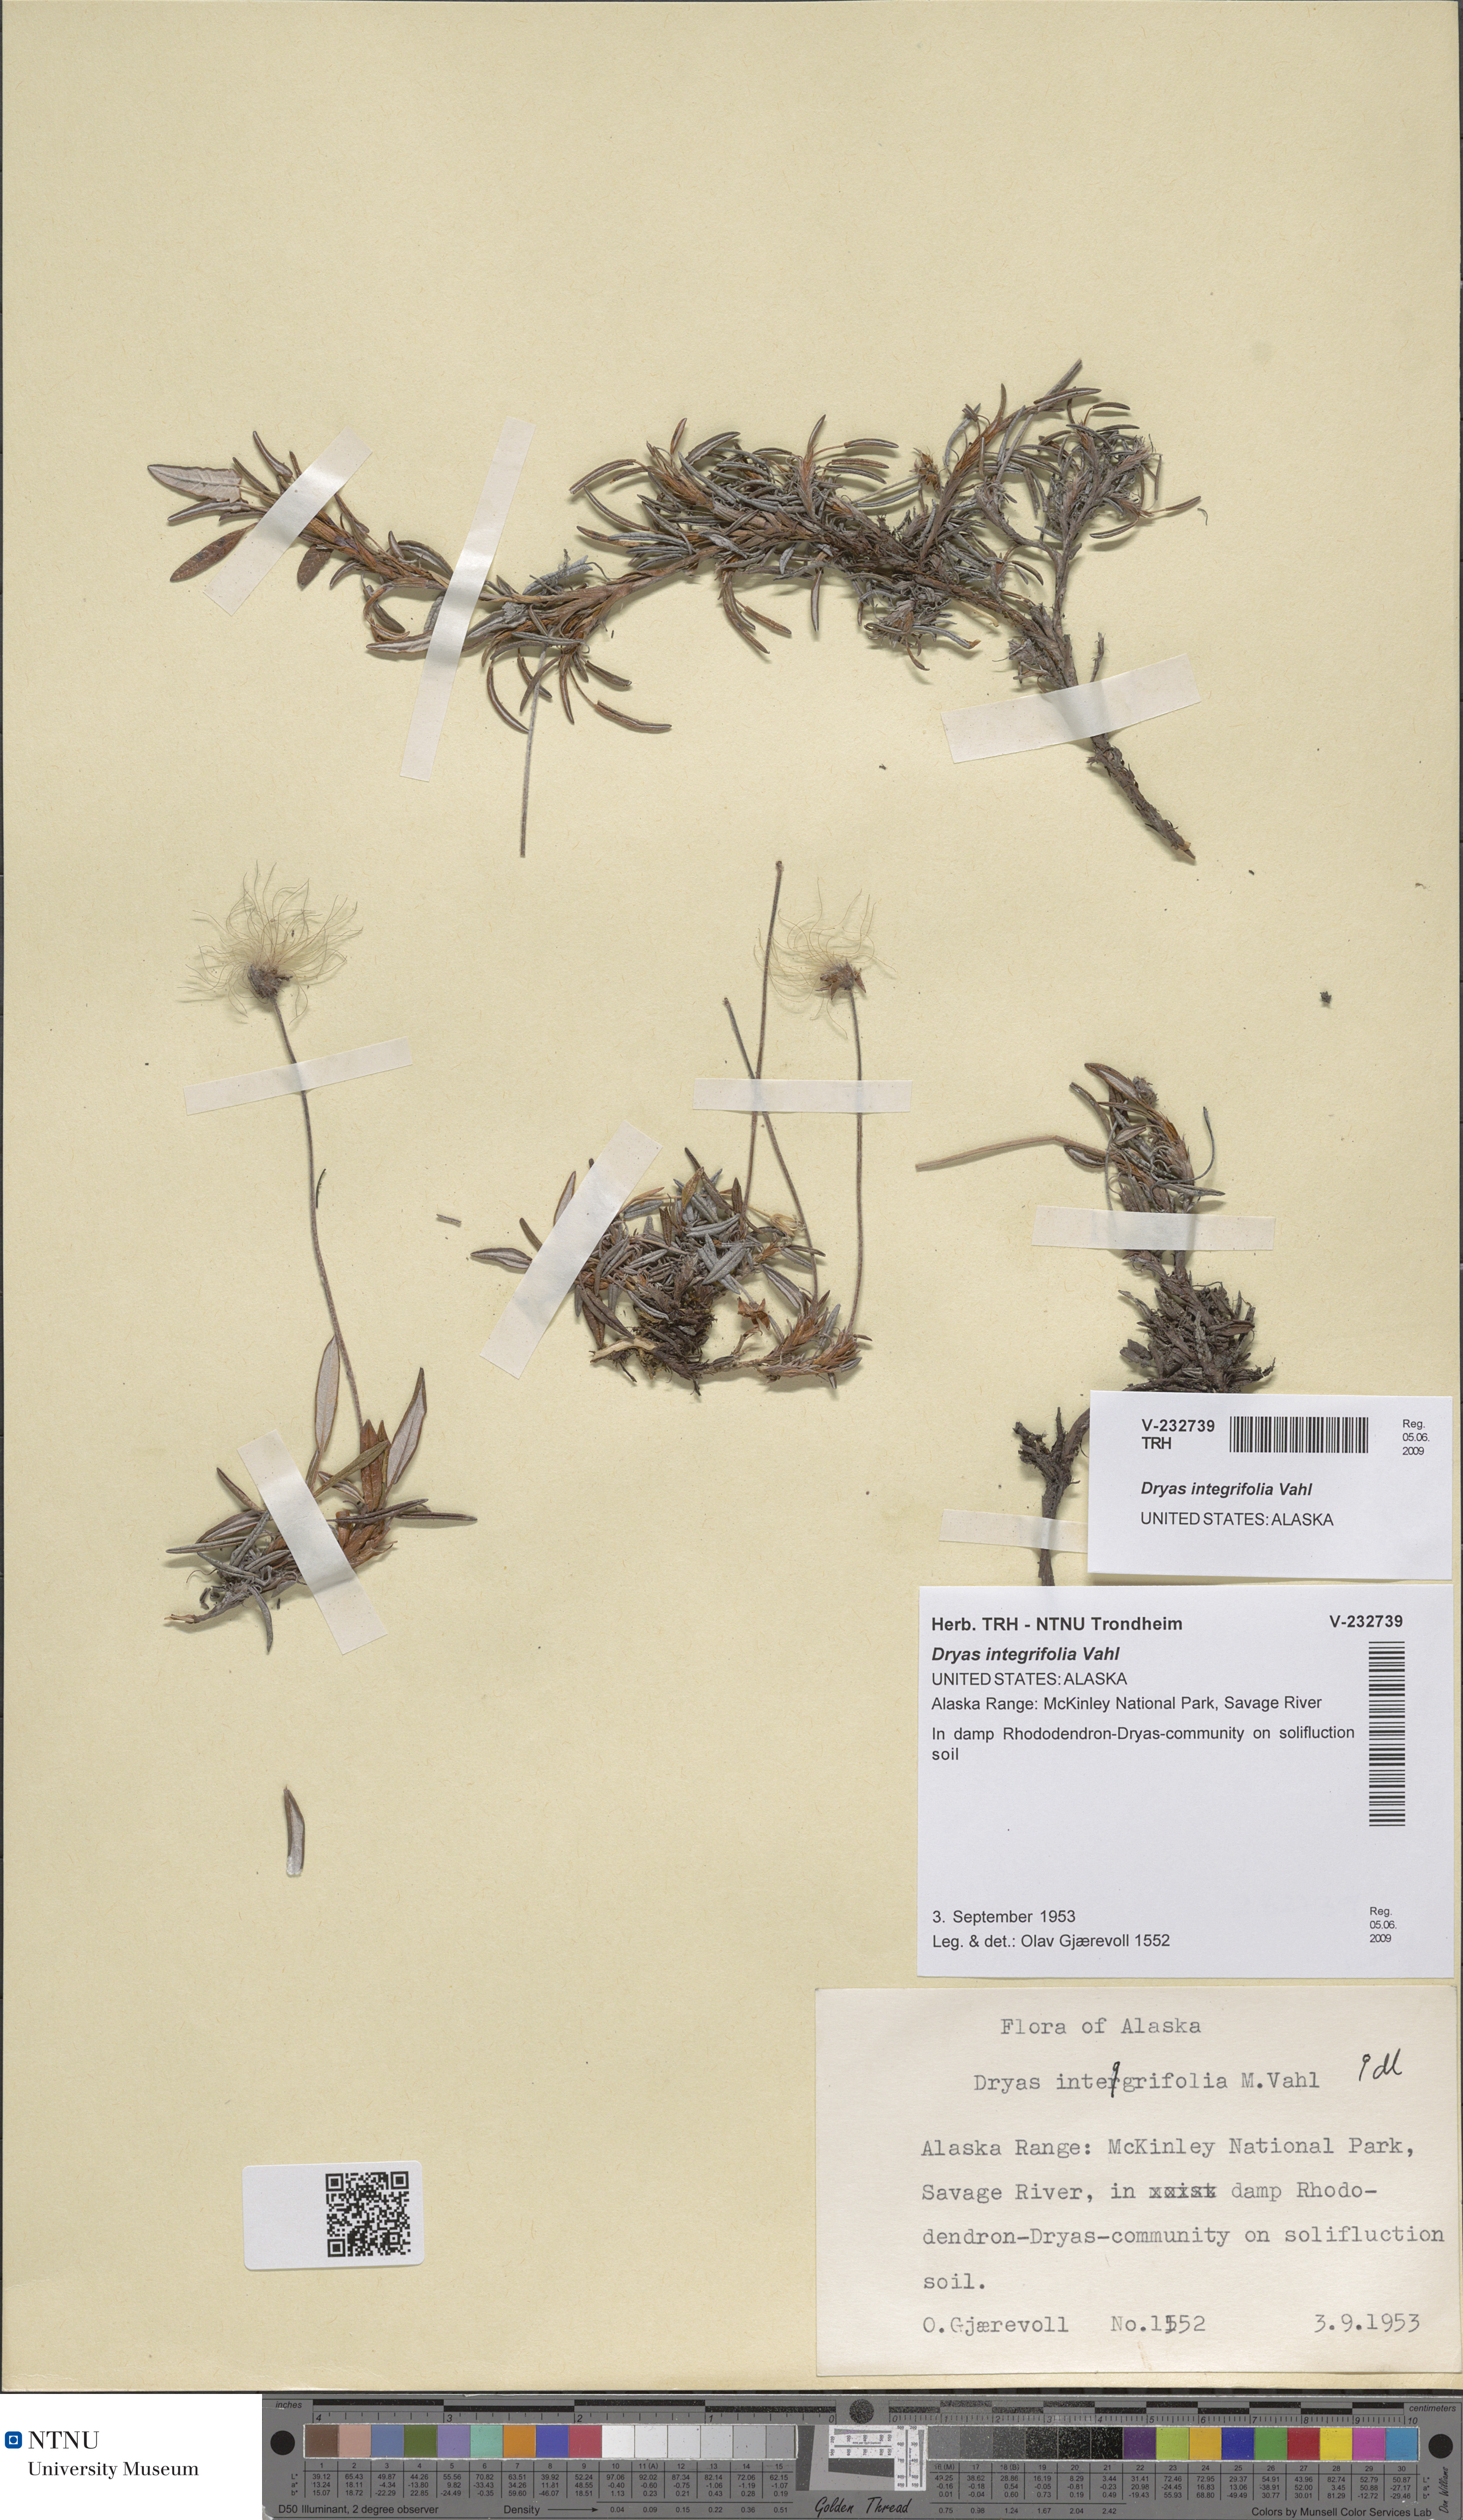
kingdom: Plantae
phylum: Tracheophyta
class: Magnoliopsida
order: Rosales
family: Rosaceae
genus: Dryas
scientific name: Dryas integrifolia
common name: Entire-leaved mountain avens
